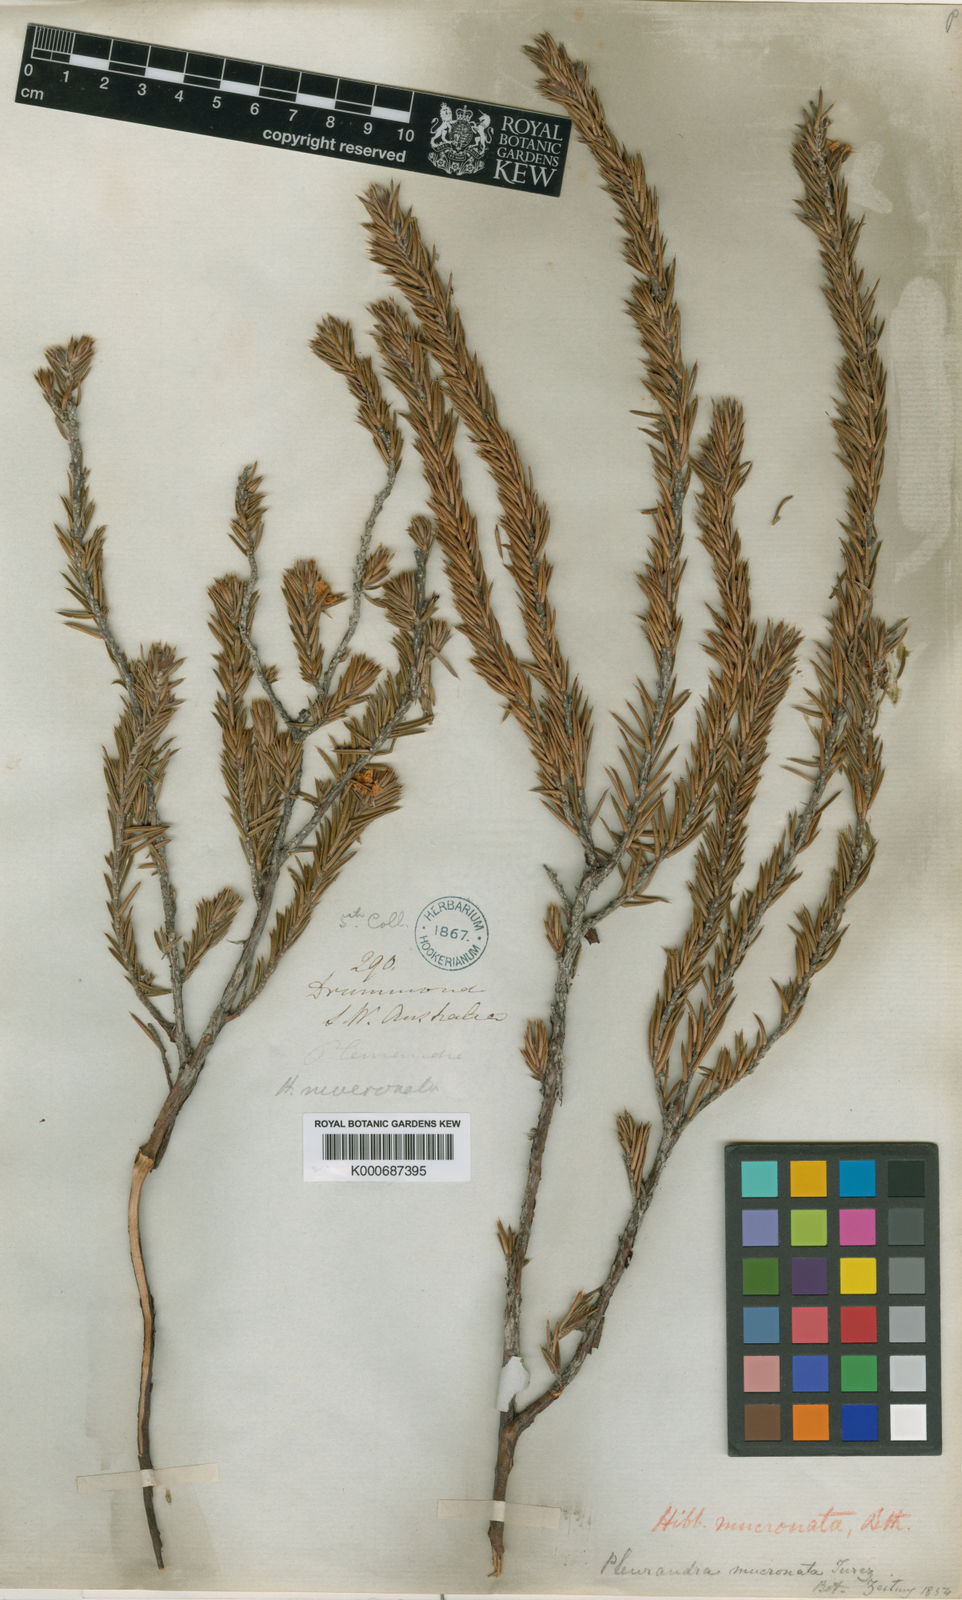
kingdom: Plantae
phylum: Tracheophyta
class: Magnoliopsida
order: Dilleniales
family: Dilleniaceae
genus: Hibbertia
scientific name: Hibbertia mucronata
